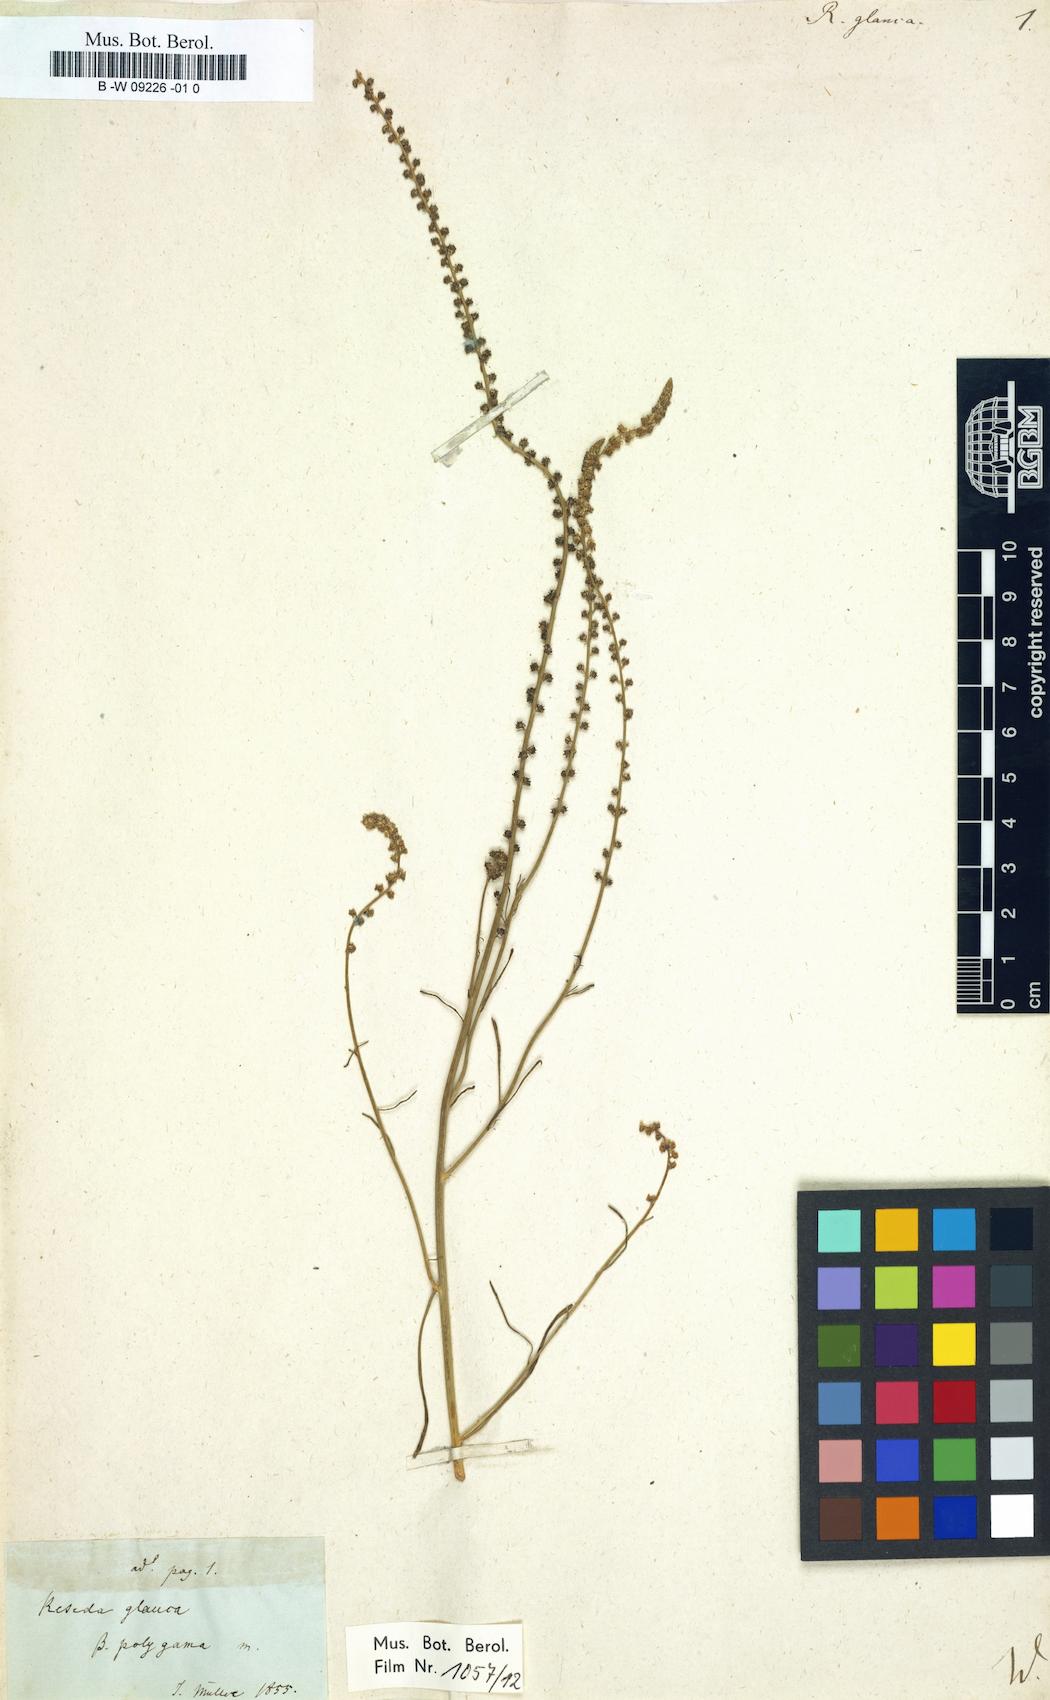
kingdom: Plantae
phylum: Tracheophyta
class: Magnoliopsida
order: Brassicales
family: Resedaceae
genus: Reseda
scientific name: Reseda glauca
